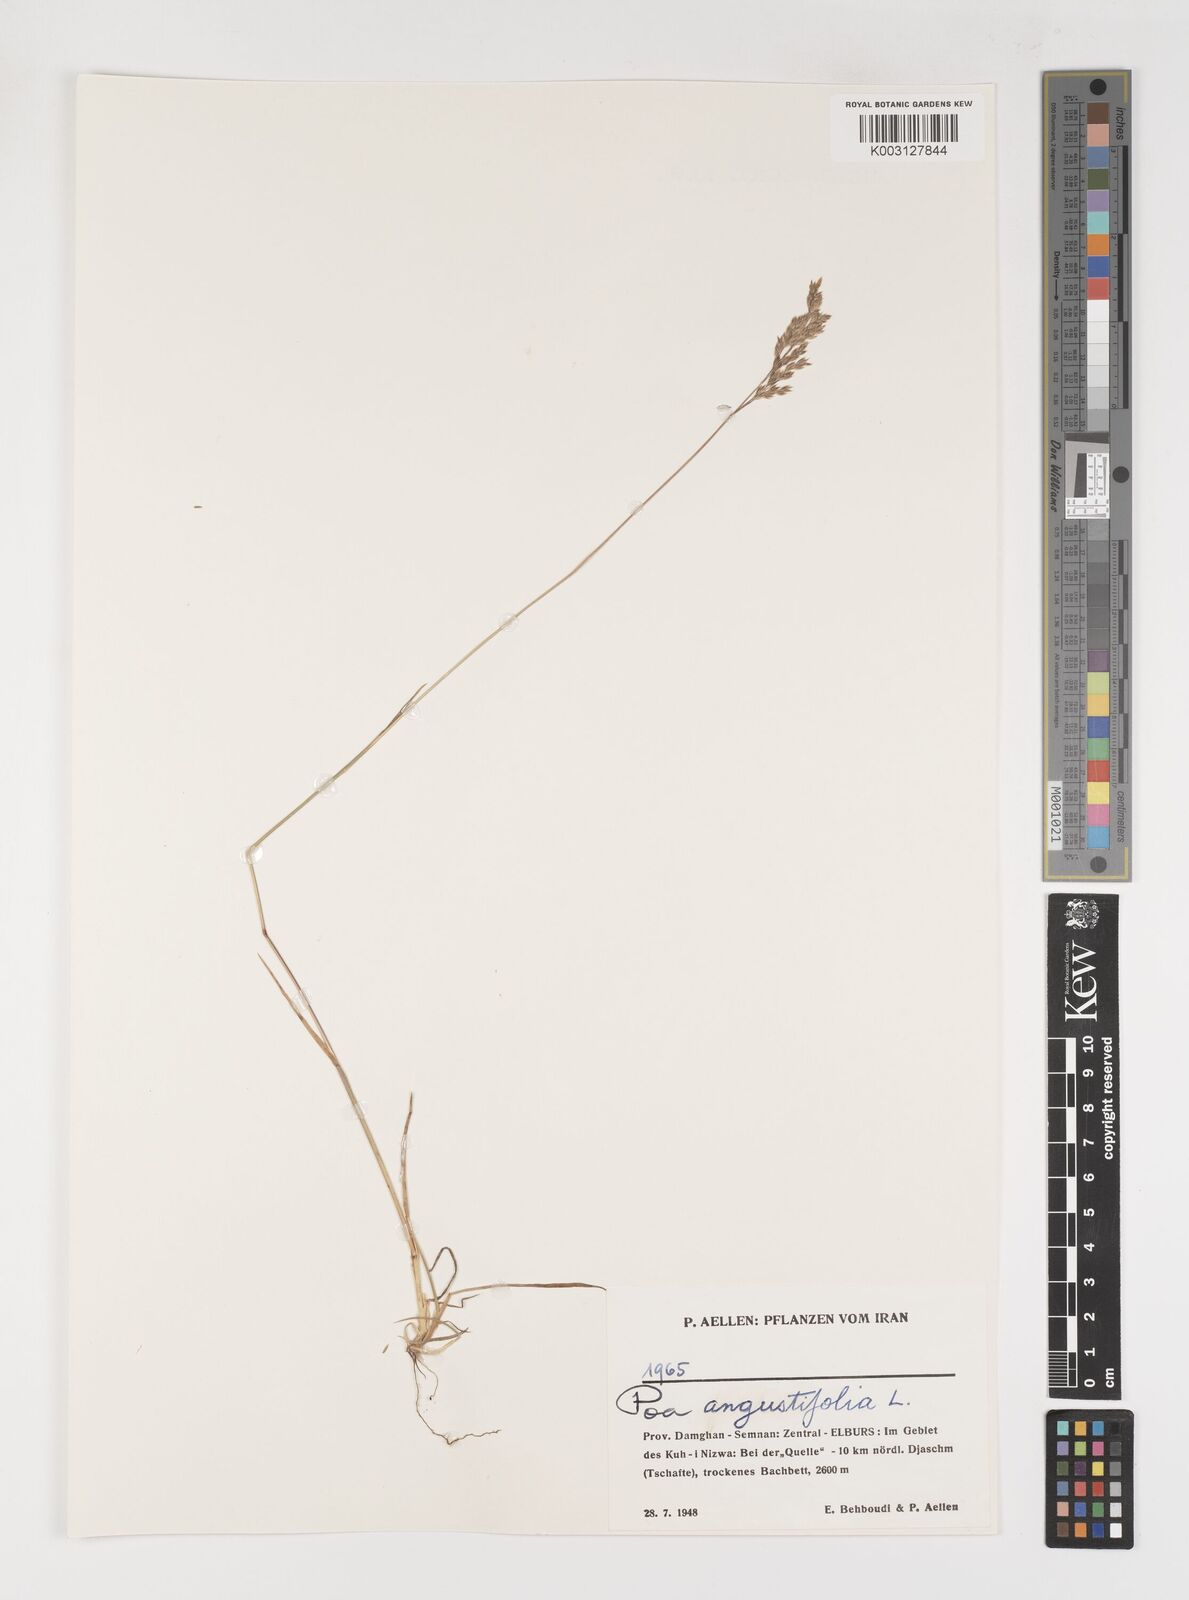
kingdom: Plantae
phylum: Tracheophyta
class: Liliopsida
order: Poales
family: Poaceae
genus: Poa
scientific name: Poa angustifolia
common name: Narrow-leaved meadow-grass
